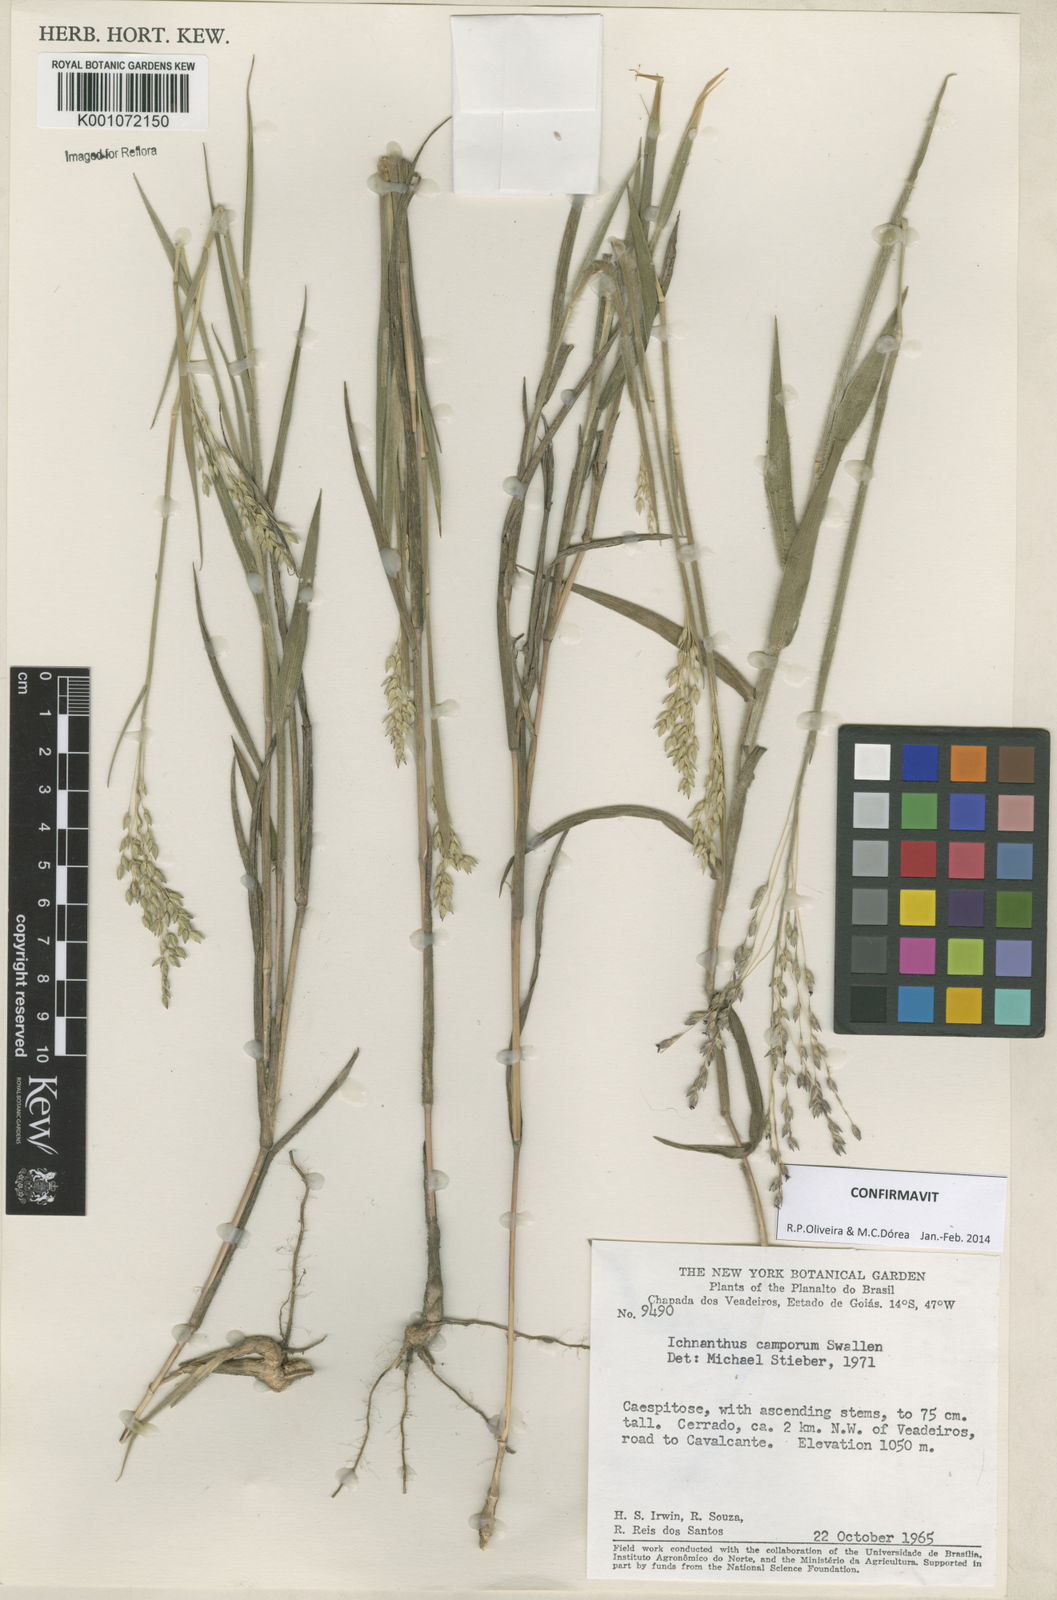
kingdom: Plantae
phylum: Tracheophyta
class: Liliopsida
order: Poales
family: Poaceae
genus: Oedochloa
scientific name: Oedochloa camporum
